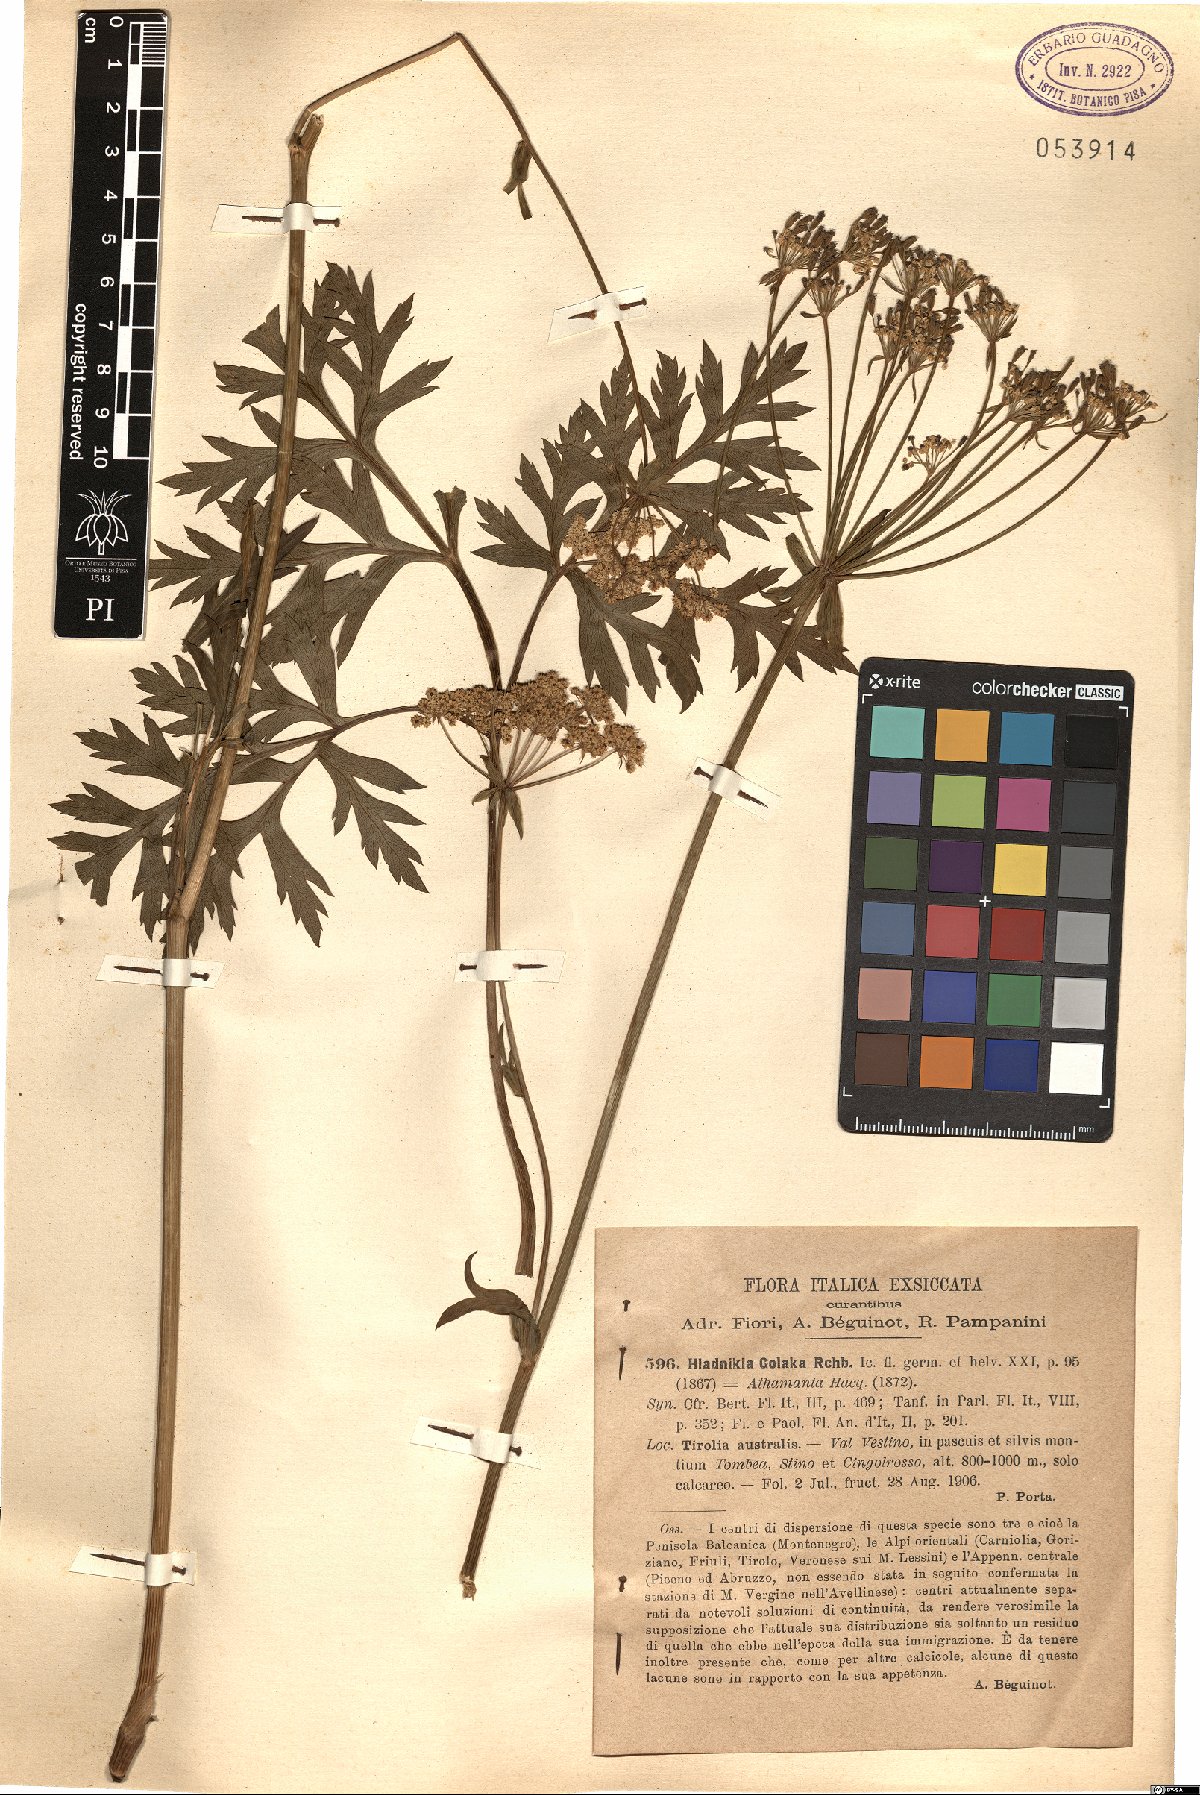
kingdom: Plantae
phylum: Tracheophyta
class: Magnoliopsida
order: Apiales
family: Apiaceae
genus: Grafia
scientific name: Grafia golaka
